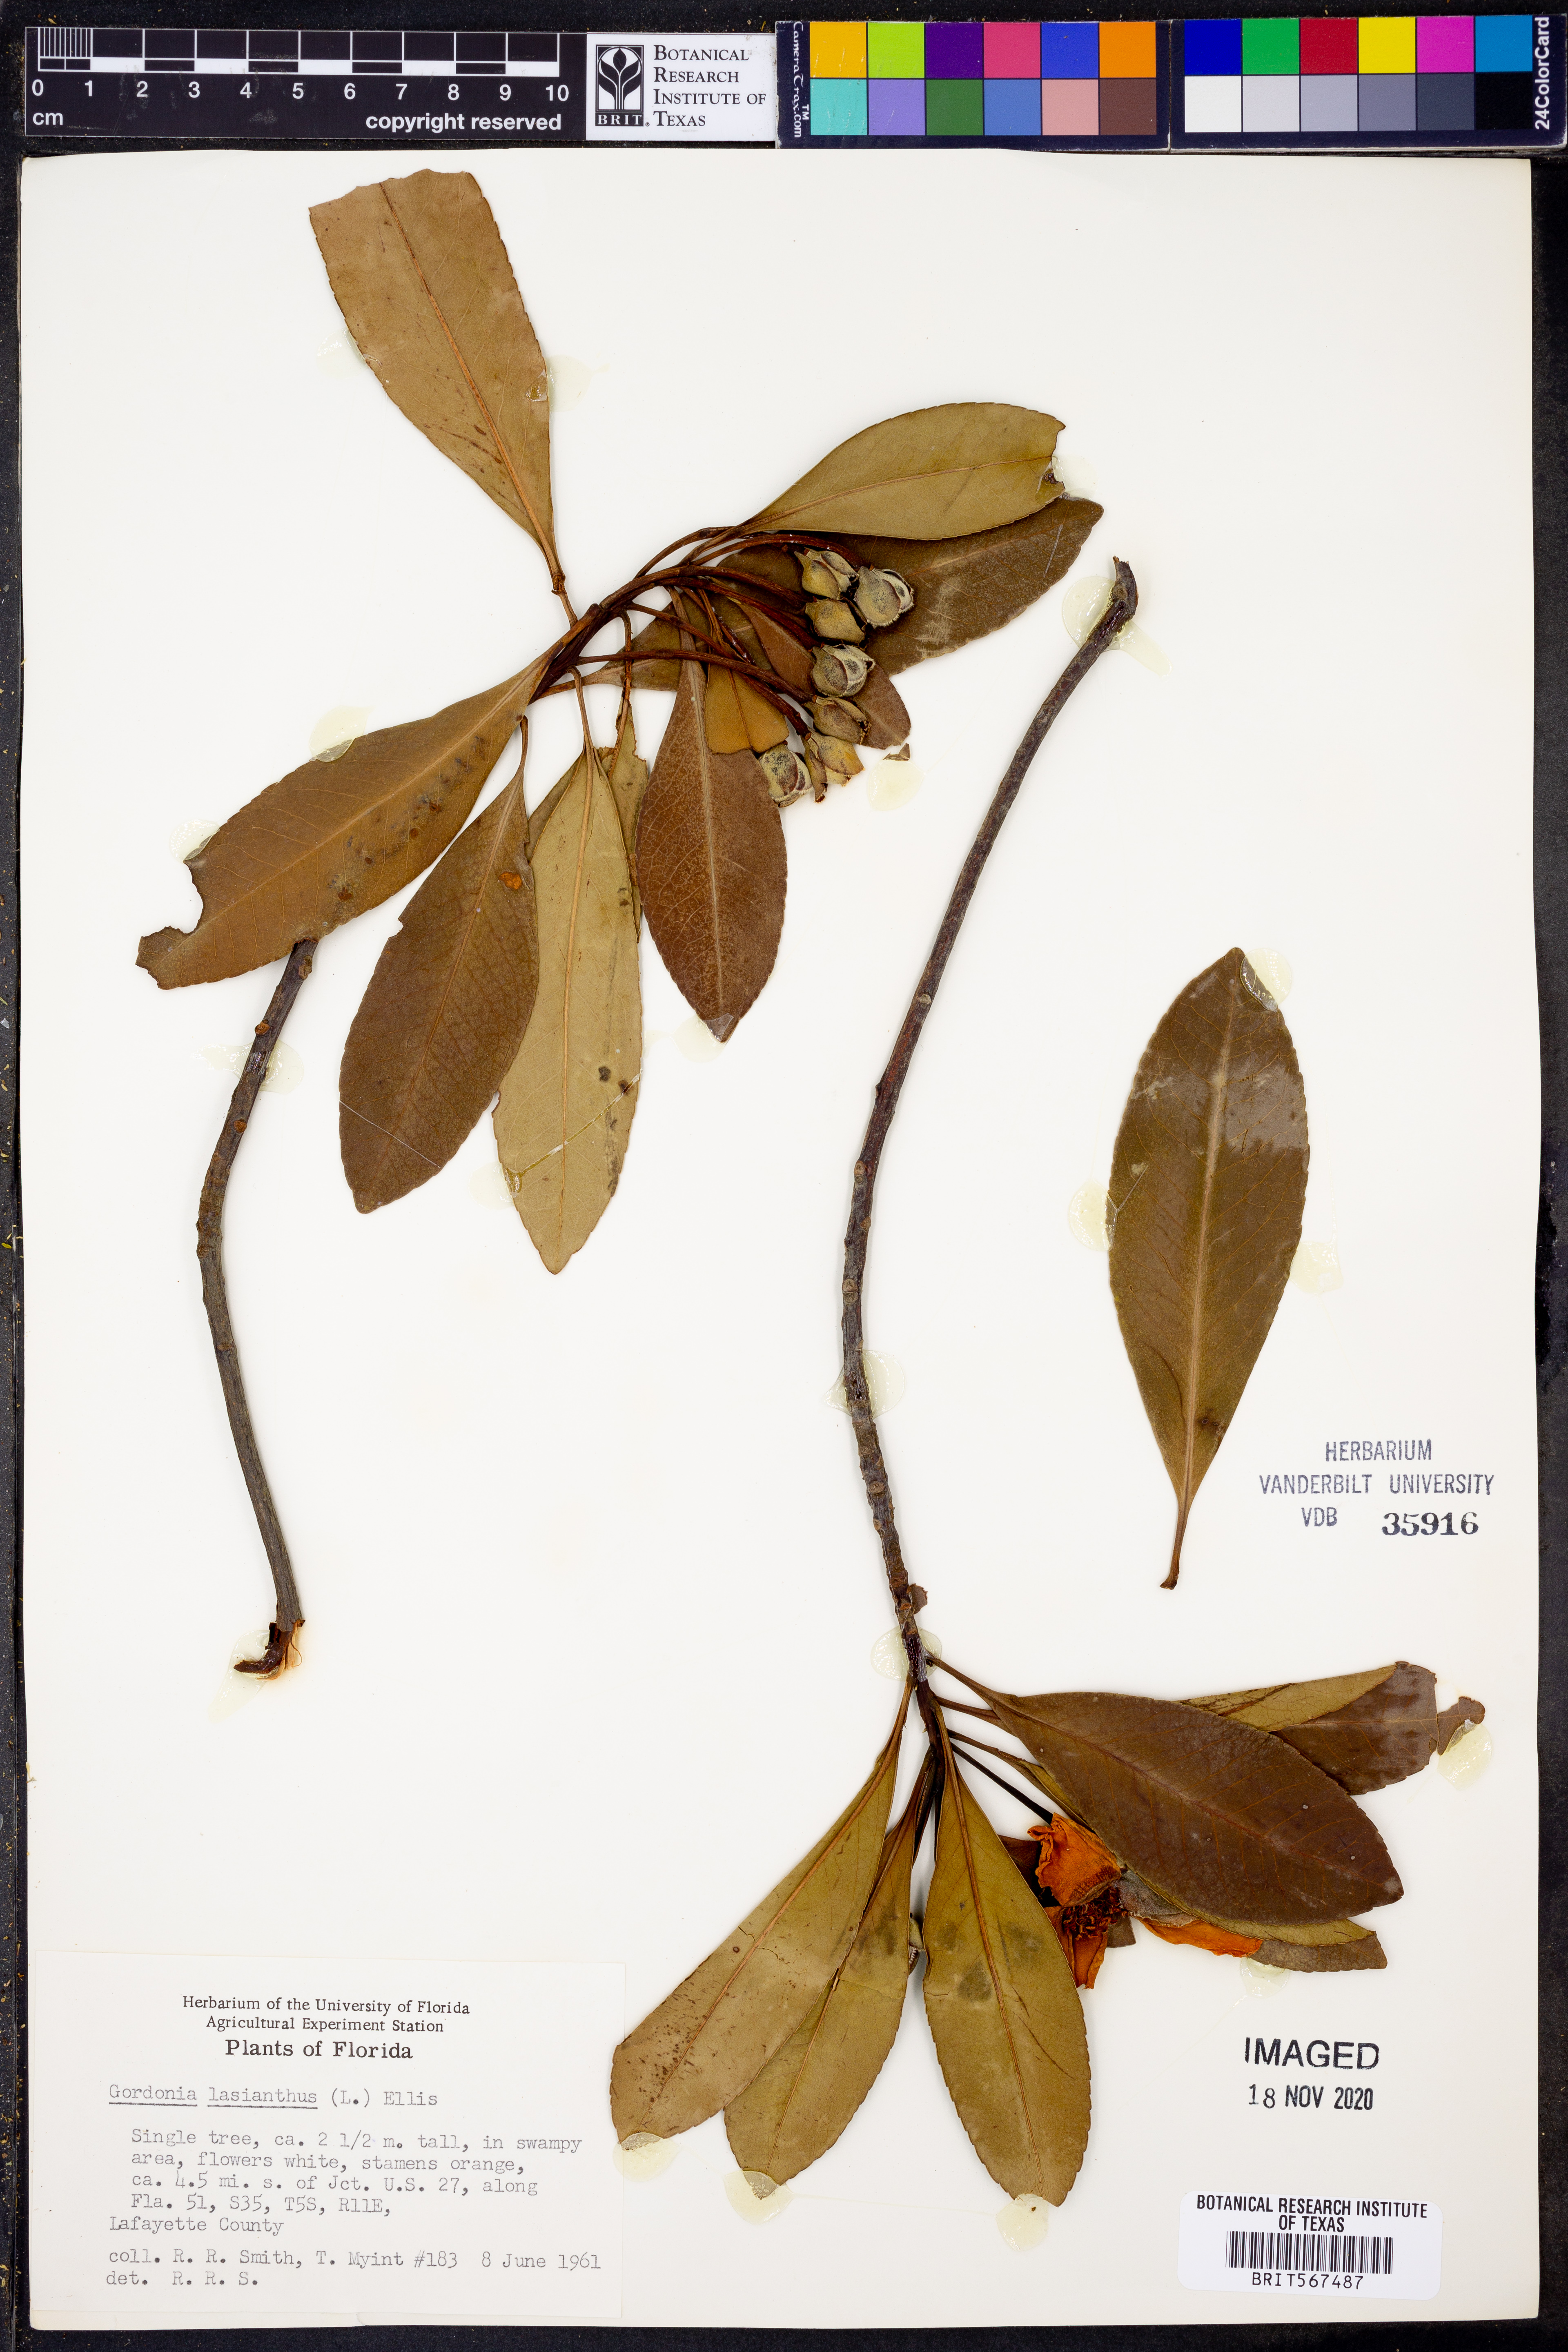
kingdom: Plantae
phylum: Tracheophyta
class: Magnoliopsida
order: Ericales
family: Theaceae
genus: Gordonia
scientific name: Gordonia lasianthus
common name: Loblolly bay
